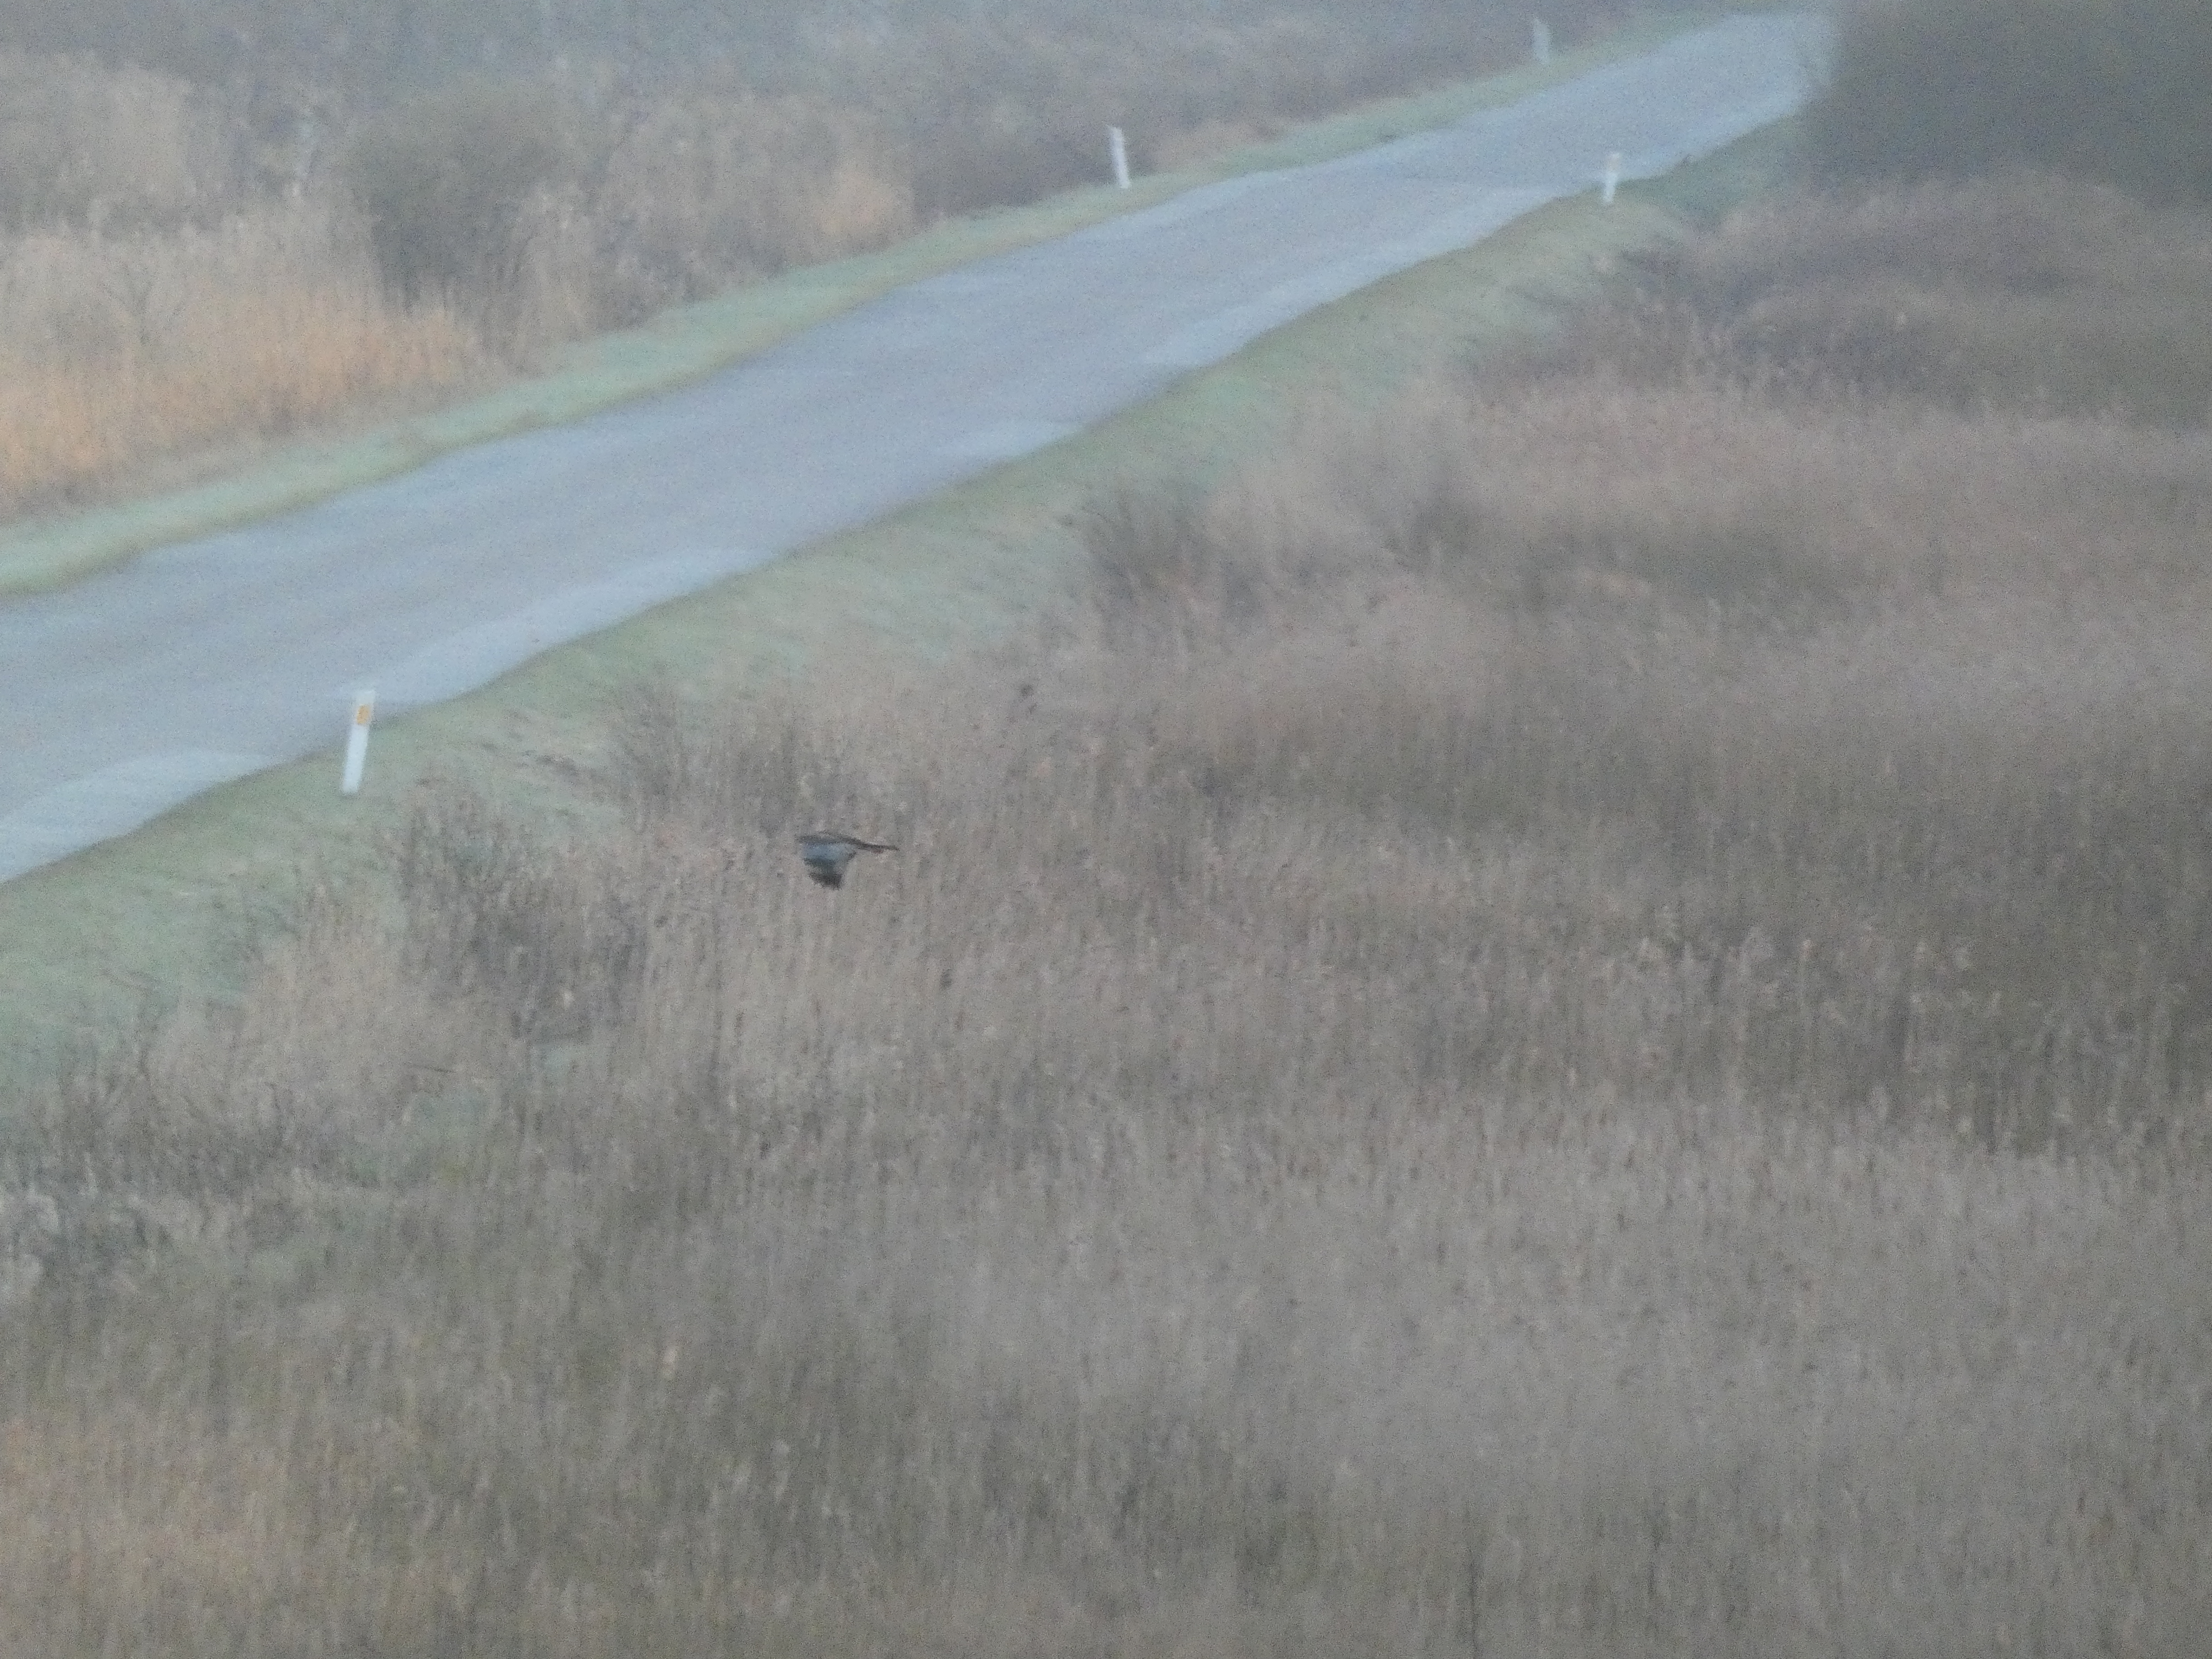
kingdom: Animalia
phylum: Chordata
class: Aves
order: Accipitriformes
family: Accipitridae
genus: Circus
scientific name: Circus aeruginosus
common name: Rørhøg
